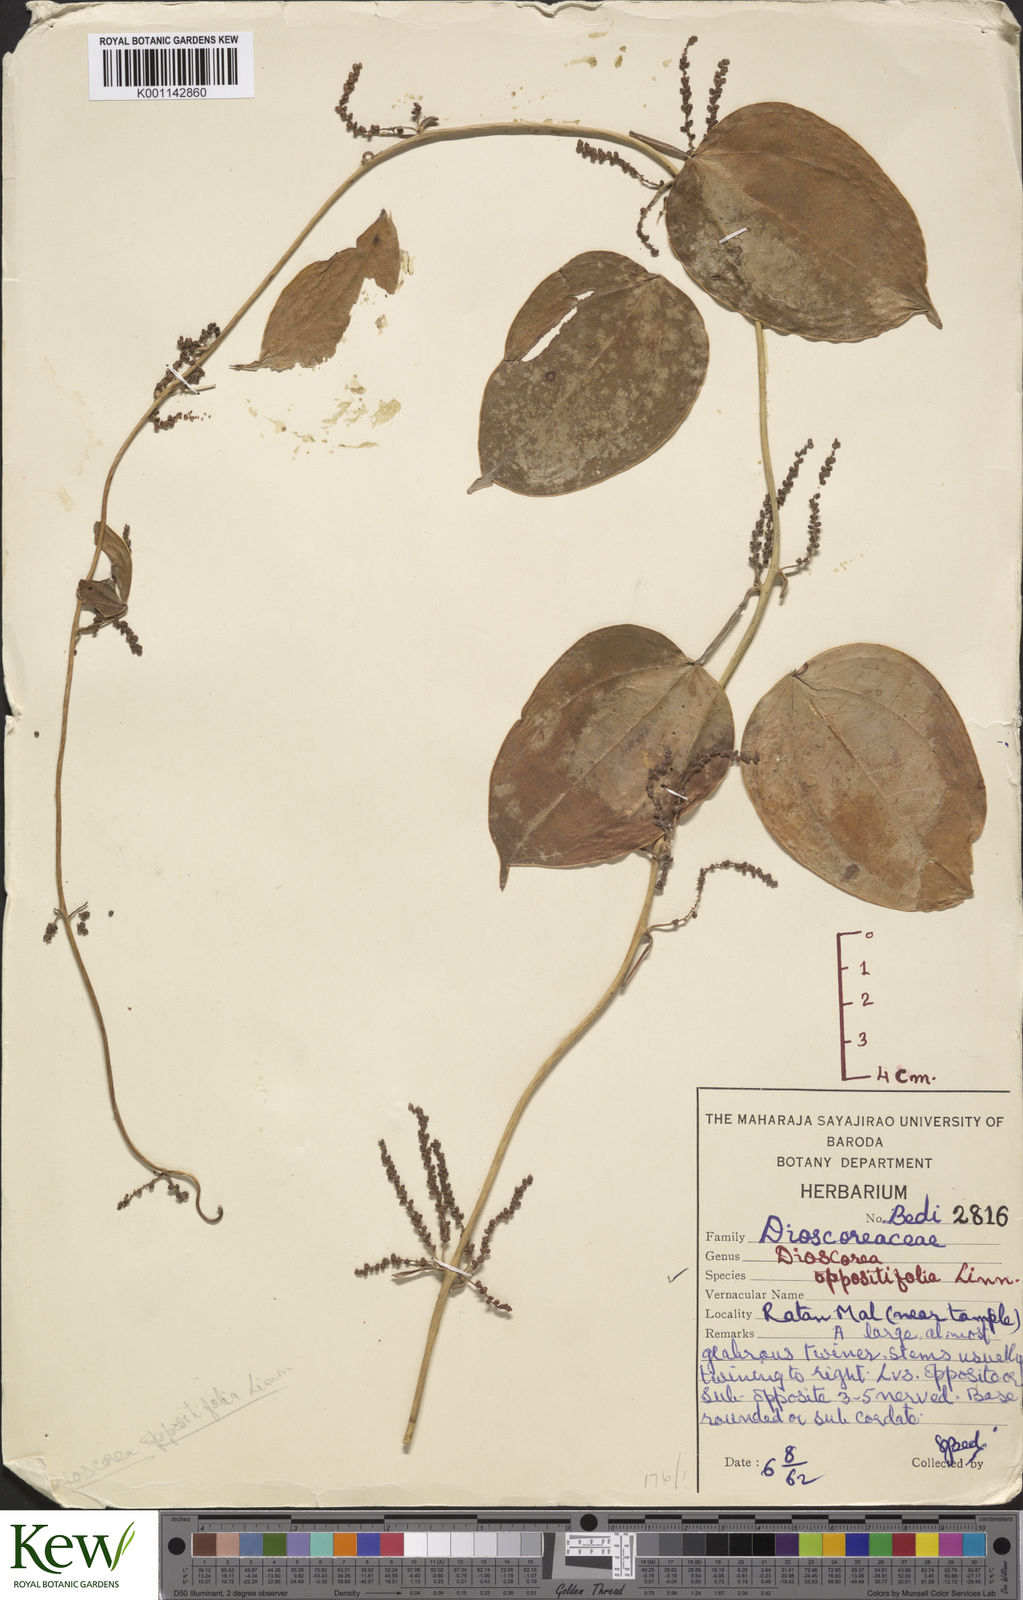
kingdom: Plantae
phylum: Tracheophyta
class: Liliopsida
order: Dioscoreales
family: Dioscoreaceae
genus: Dioscorea
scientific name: Dioscorea oppositifolia
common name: Chinese yam
